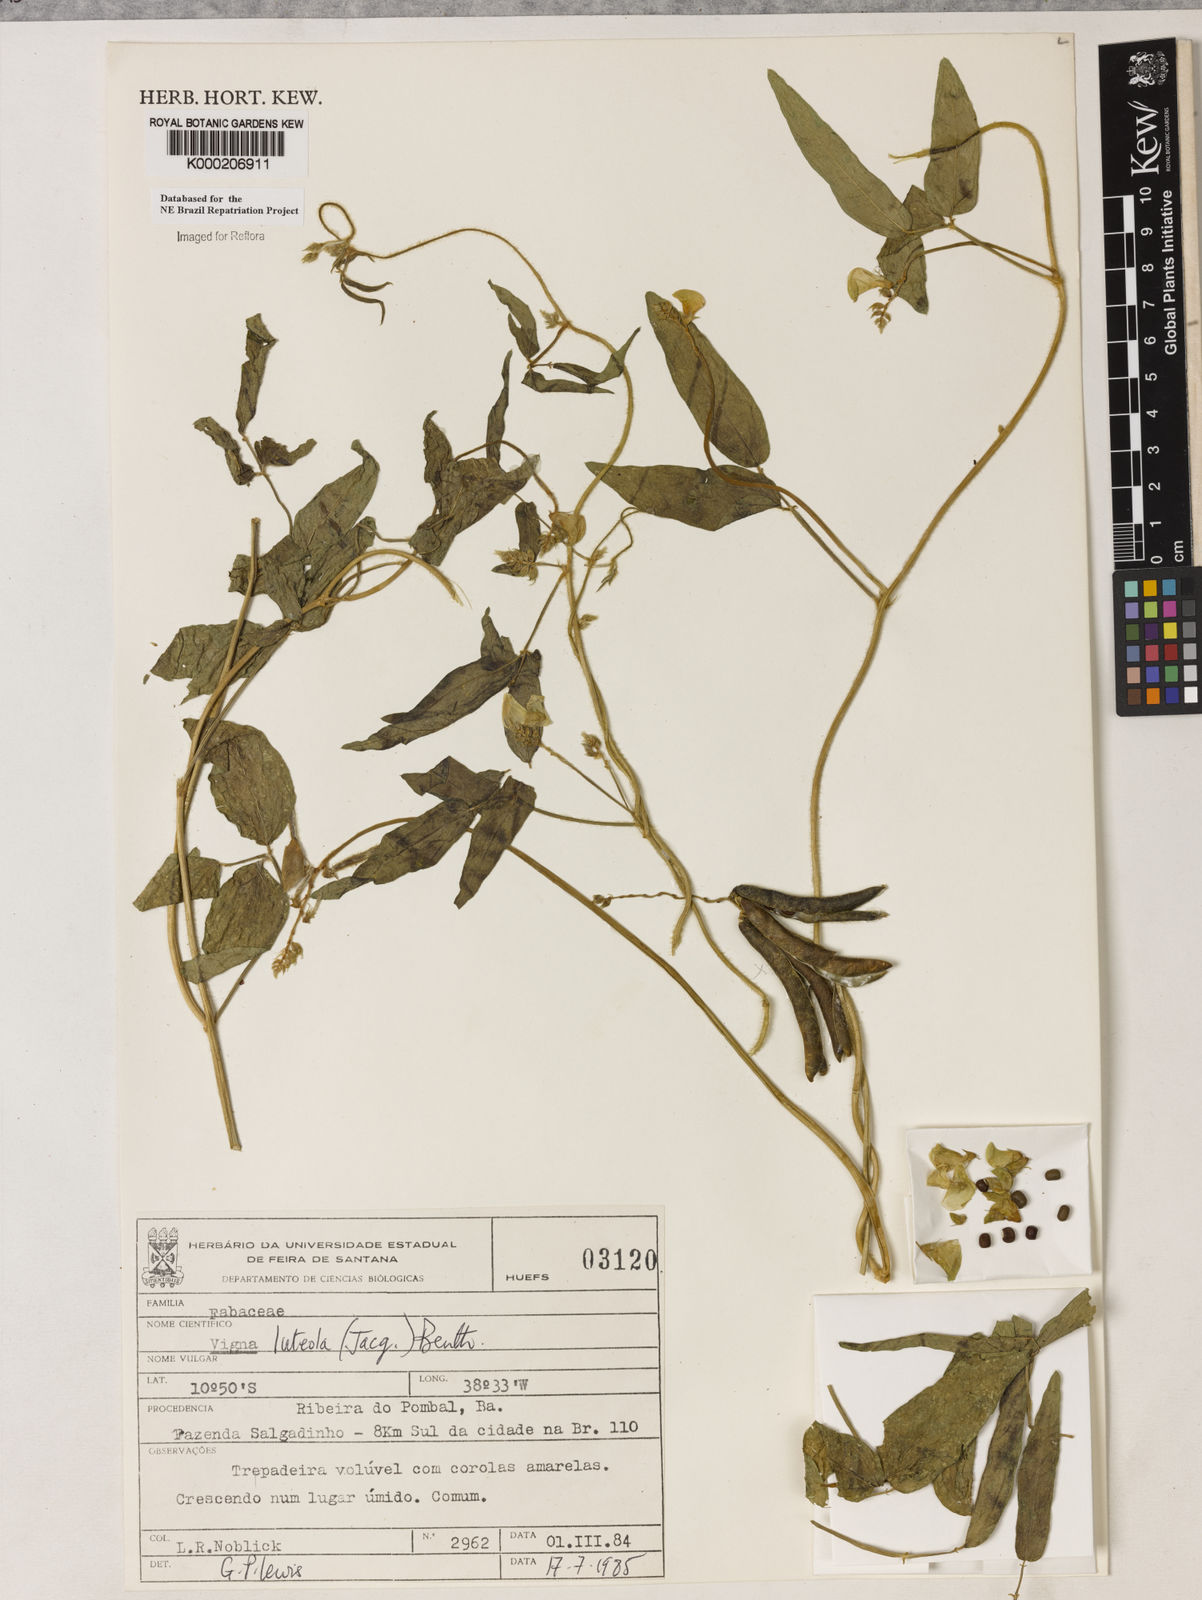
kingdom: Plantae
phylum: Tracheophyta
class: Magnoliopsida
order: Fabales
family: Fabaceae
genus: Vigna
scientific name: Vigna luteola
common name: Hairypod cowpea
